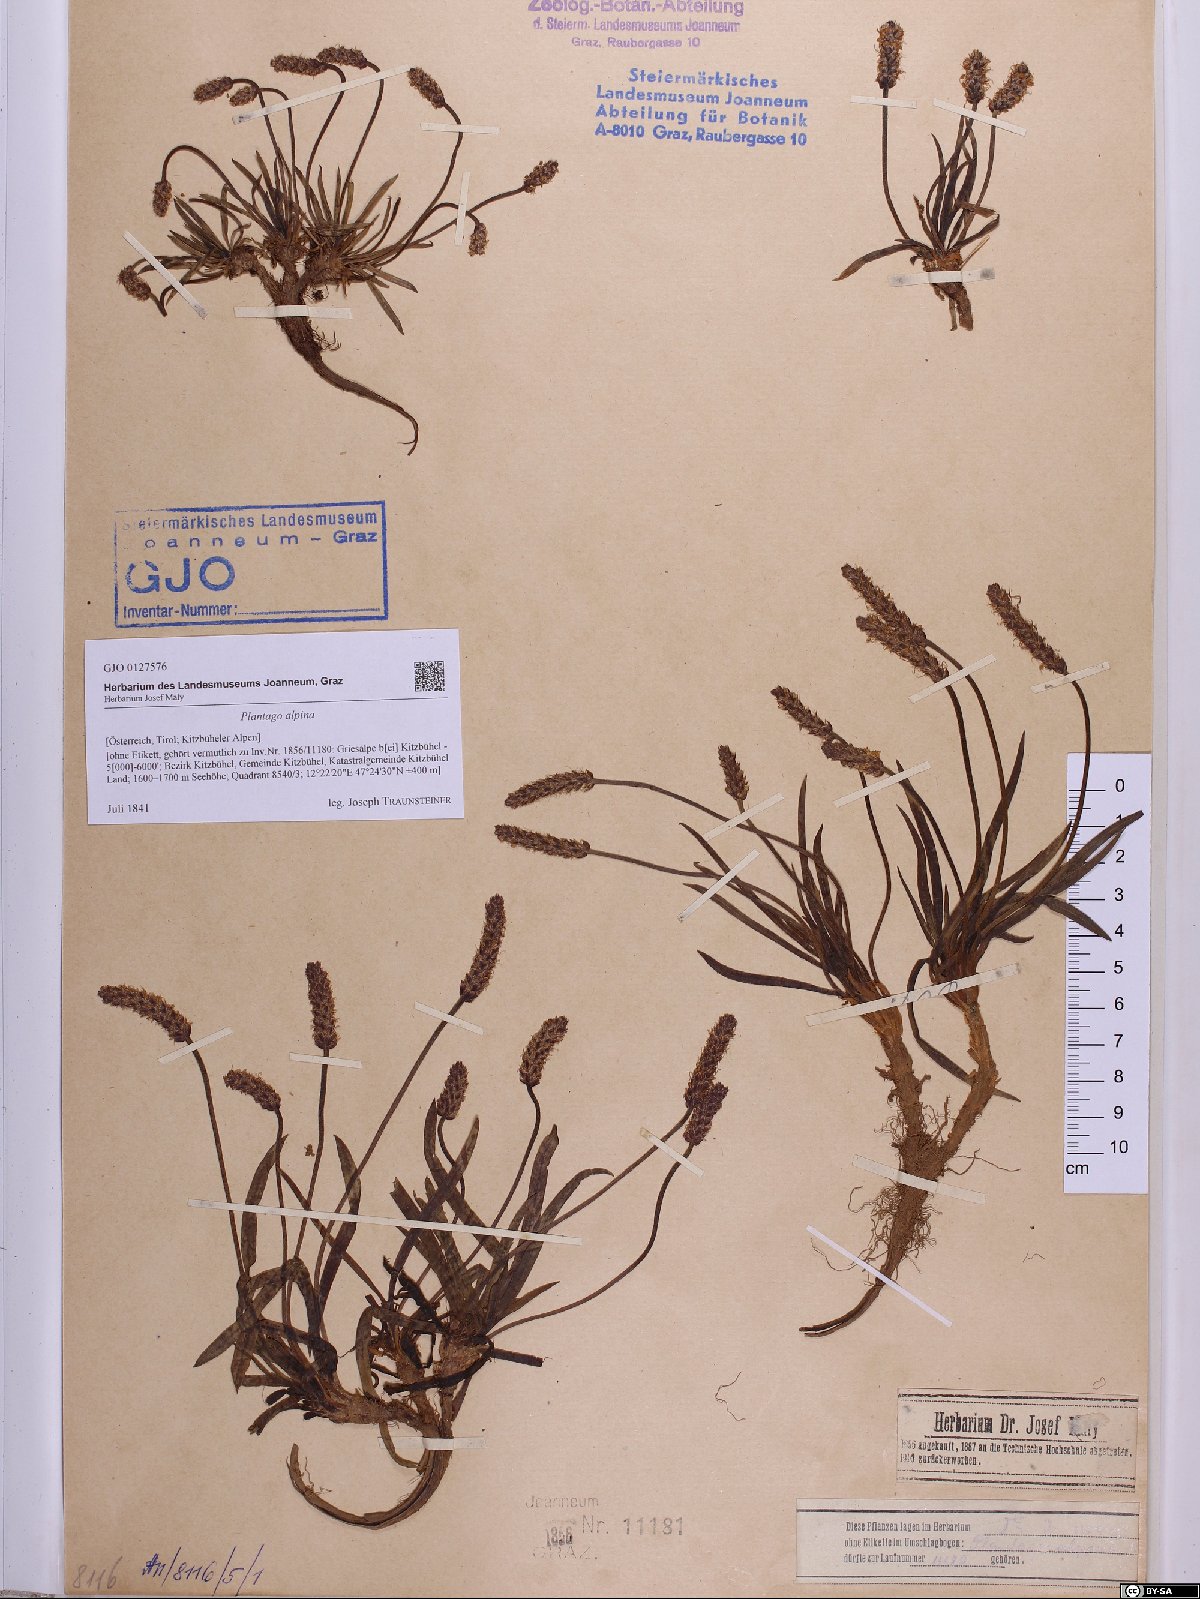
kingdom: Plantae
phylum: Tracheophyta
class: Magnoliopsida
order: Lamiales
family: Plantaginaceae
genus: Plantago
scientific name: Plantago alpina
